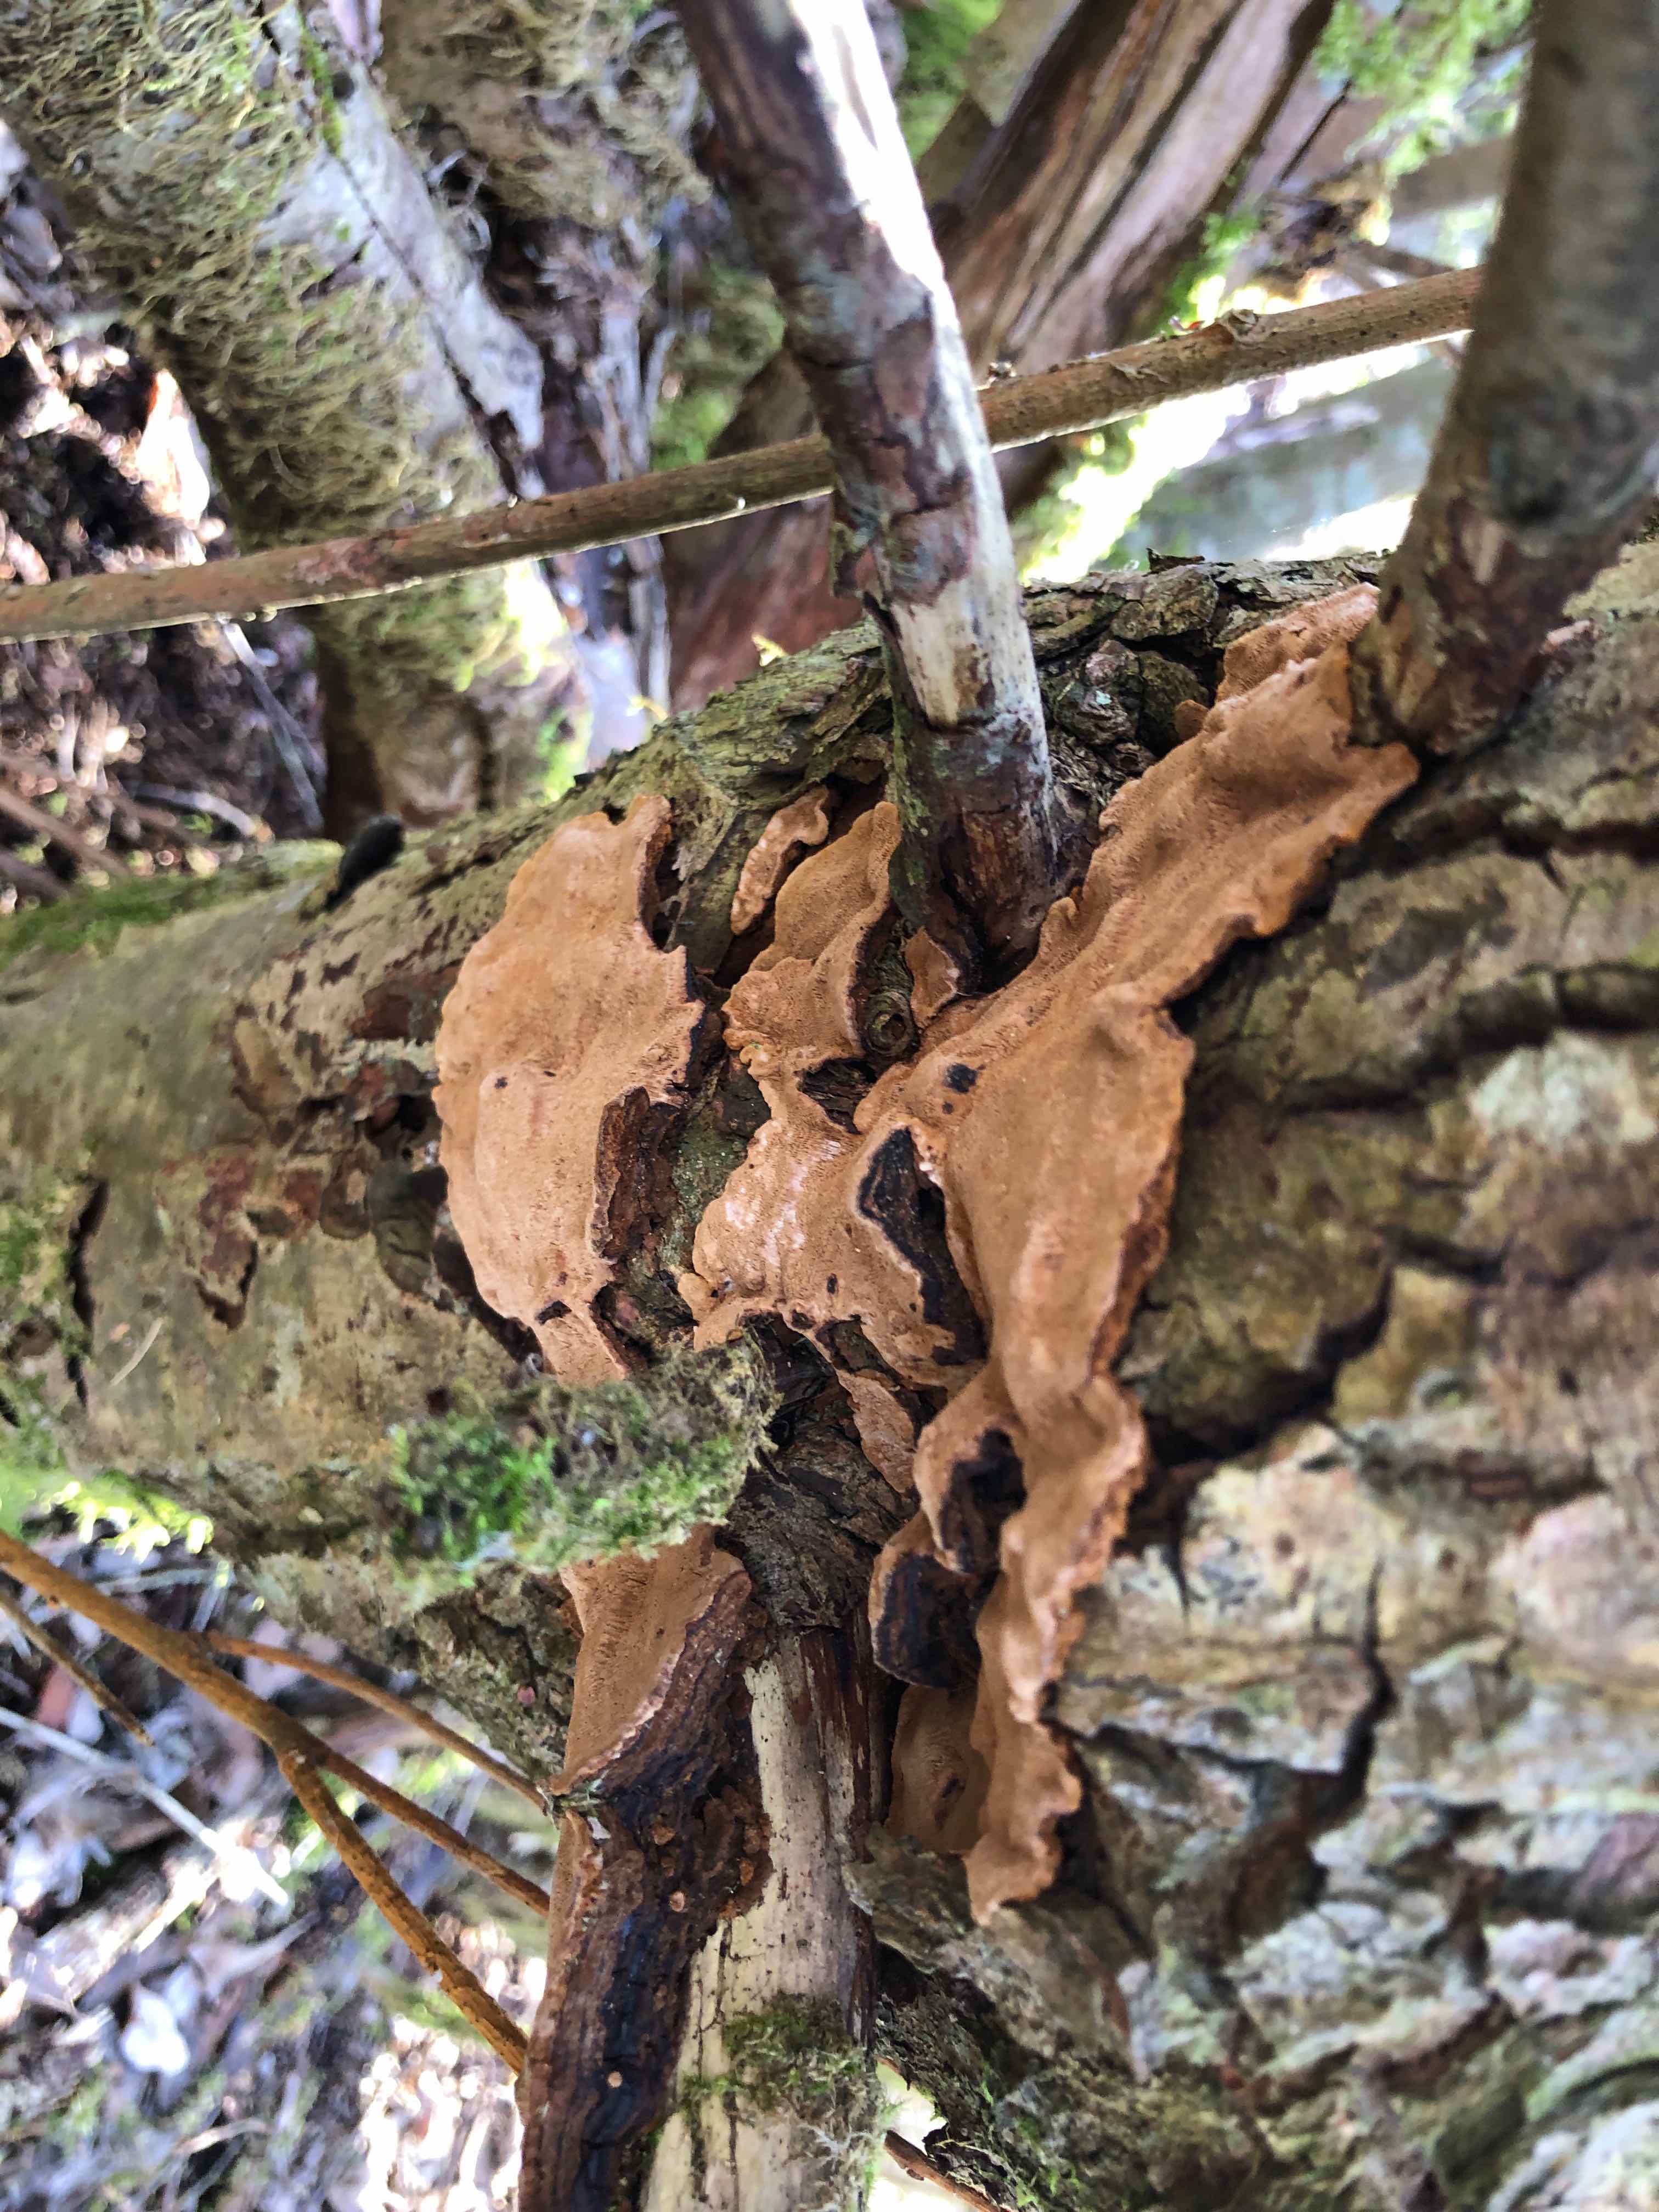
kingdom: Fungi
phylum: Basidiomycota
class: Agaricomycetes
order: Hymenochaetales
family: Hymenochaetaceae
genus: Phellinopsis
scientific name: Phellinopsis conchata
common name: pile-ildporesvamp
